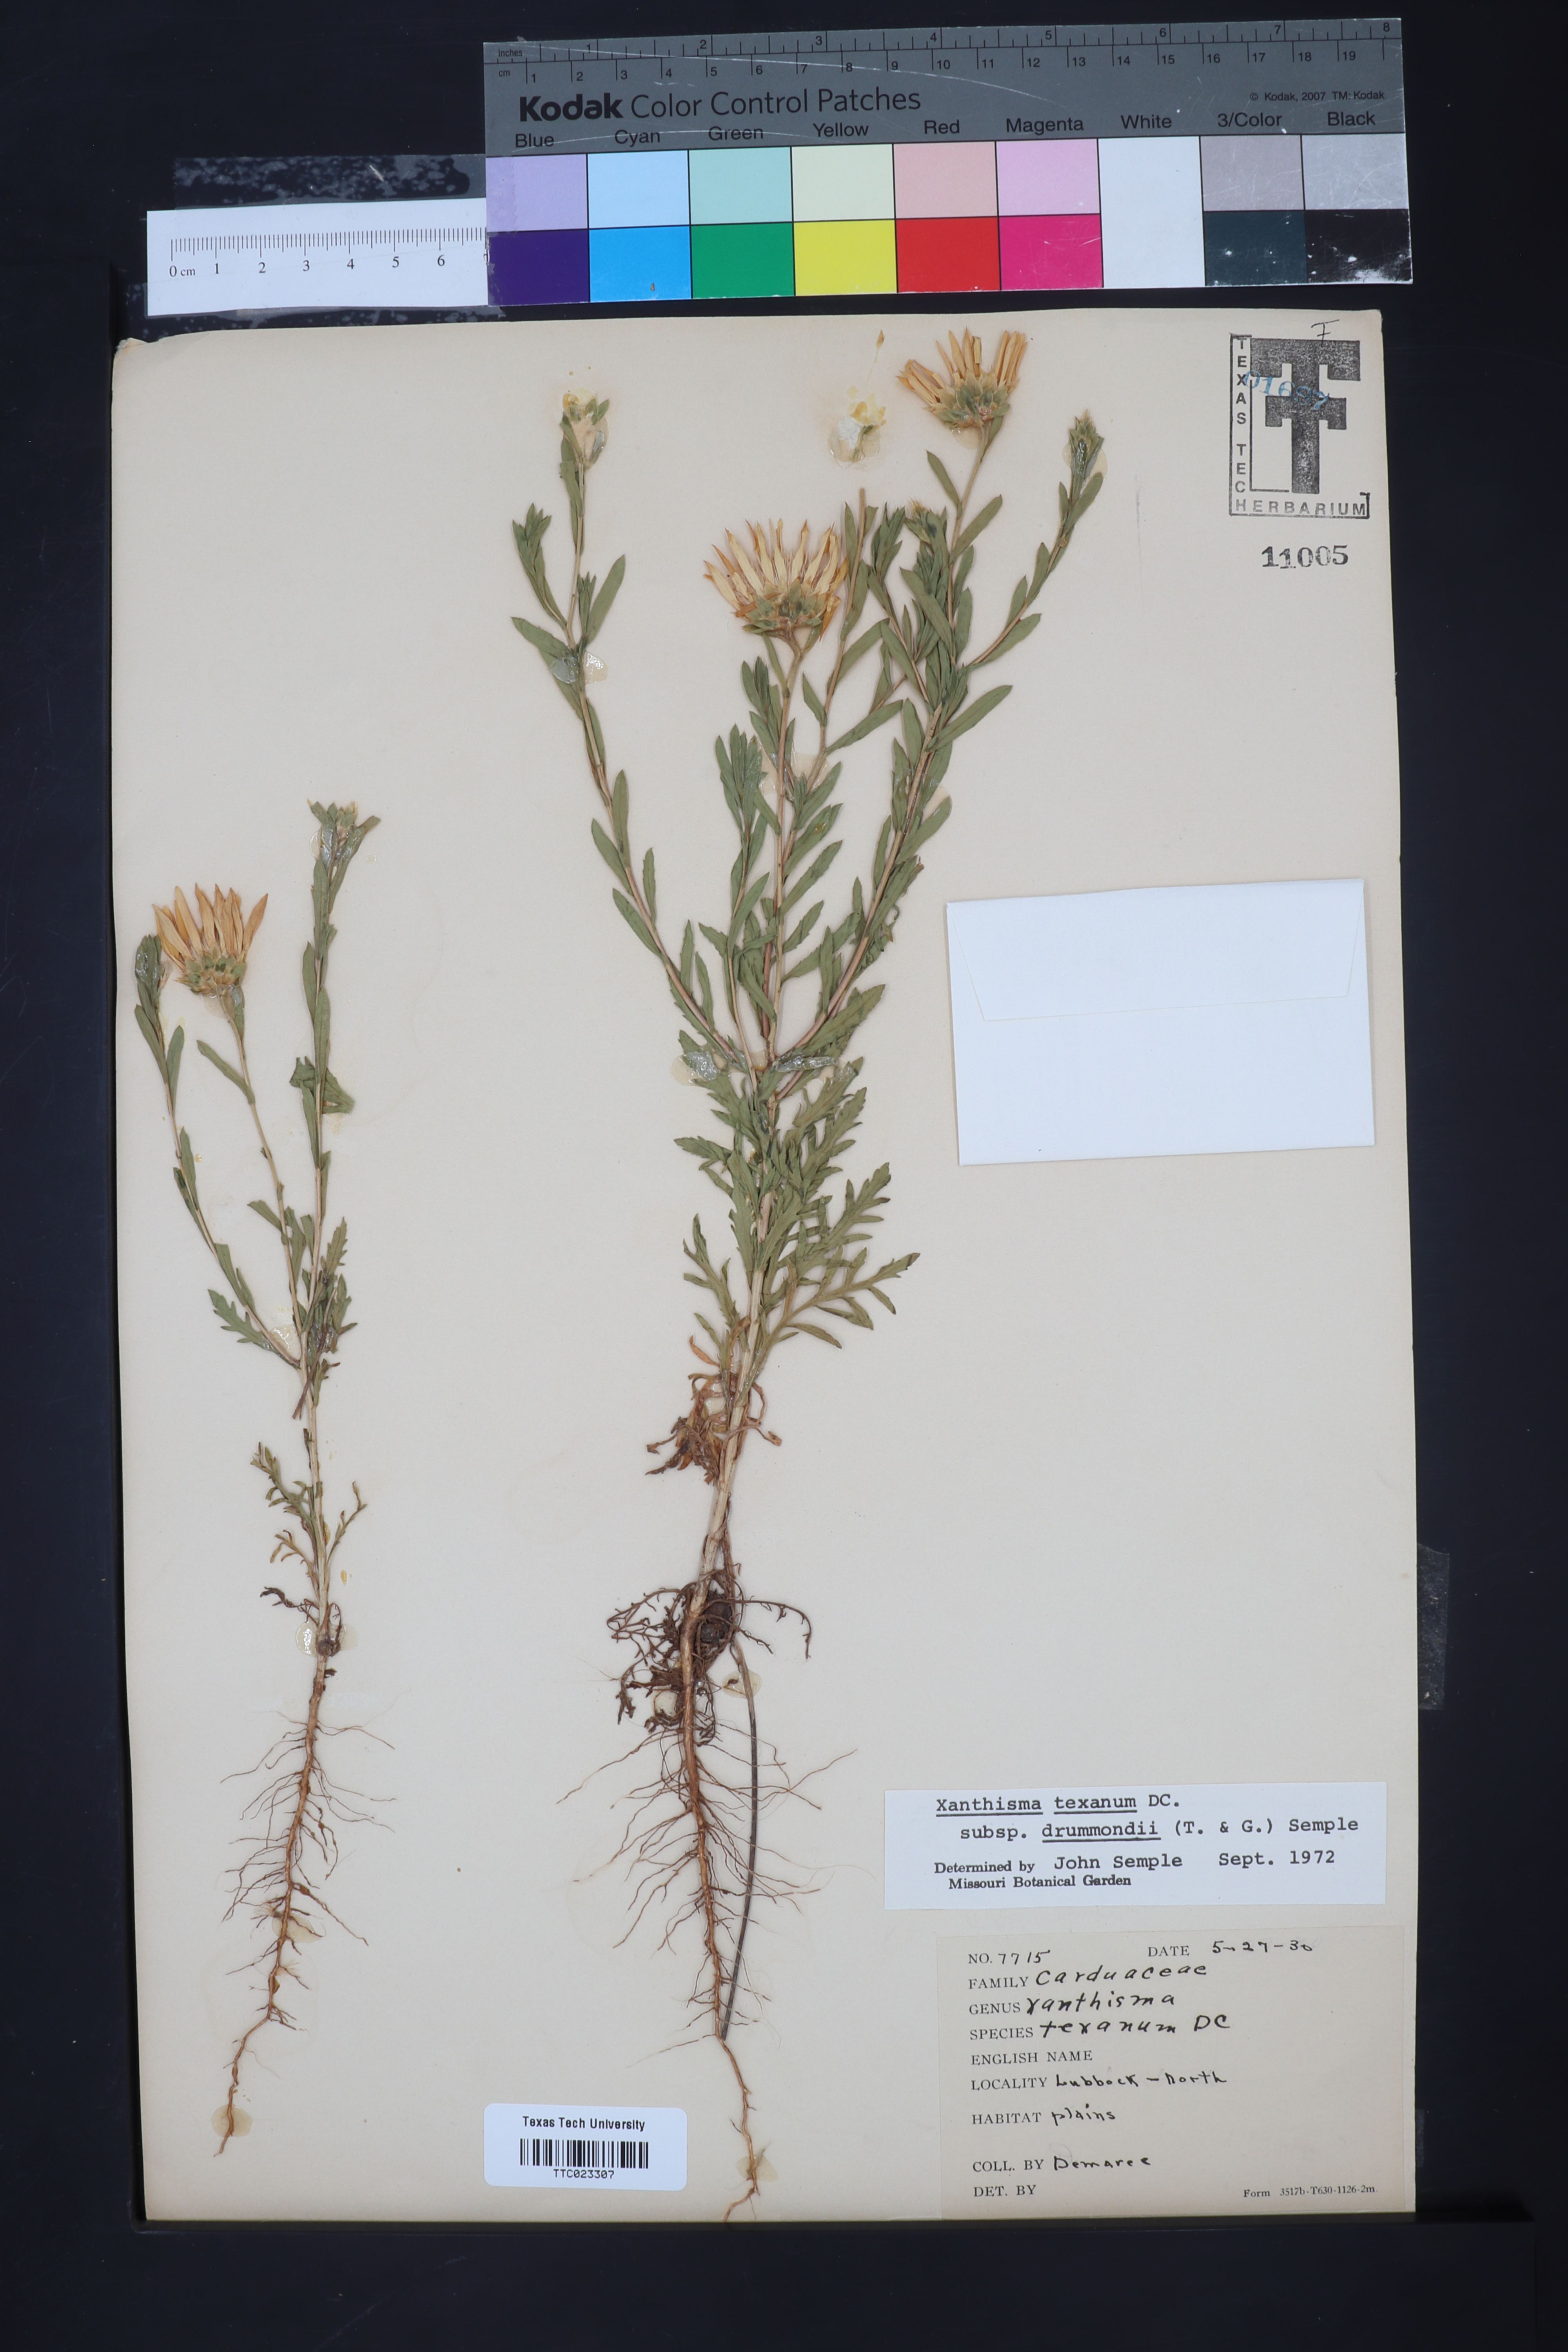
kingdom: Plantae
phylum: Tracheophyta
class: Magnoliopsida
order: Asterales
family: Asteraceae
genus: Xanthisma
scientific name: Xanthisma texanum
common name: Texas sleepy daisy
